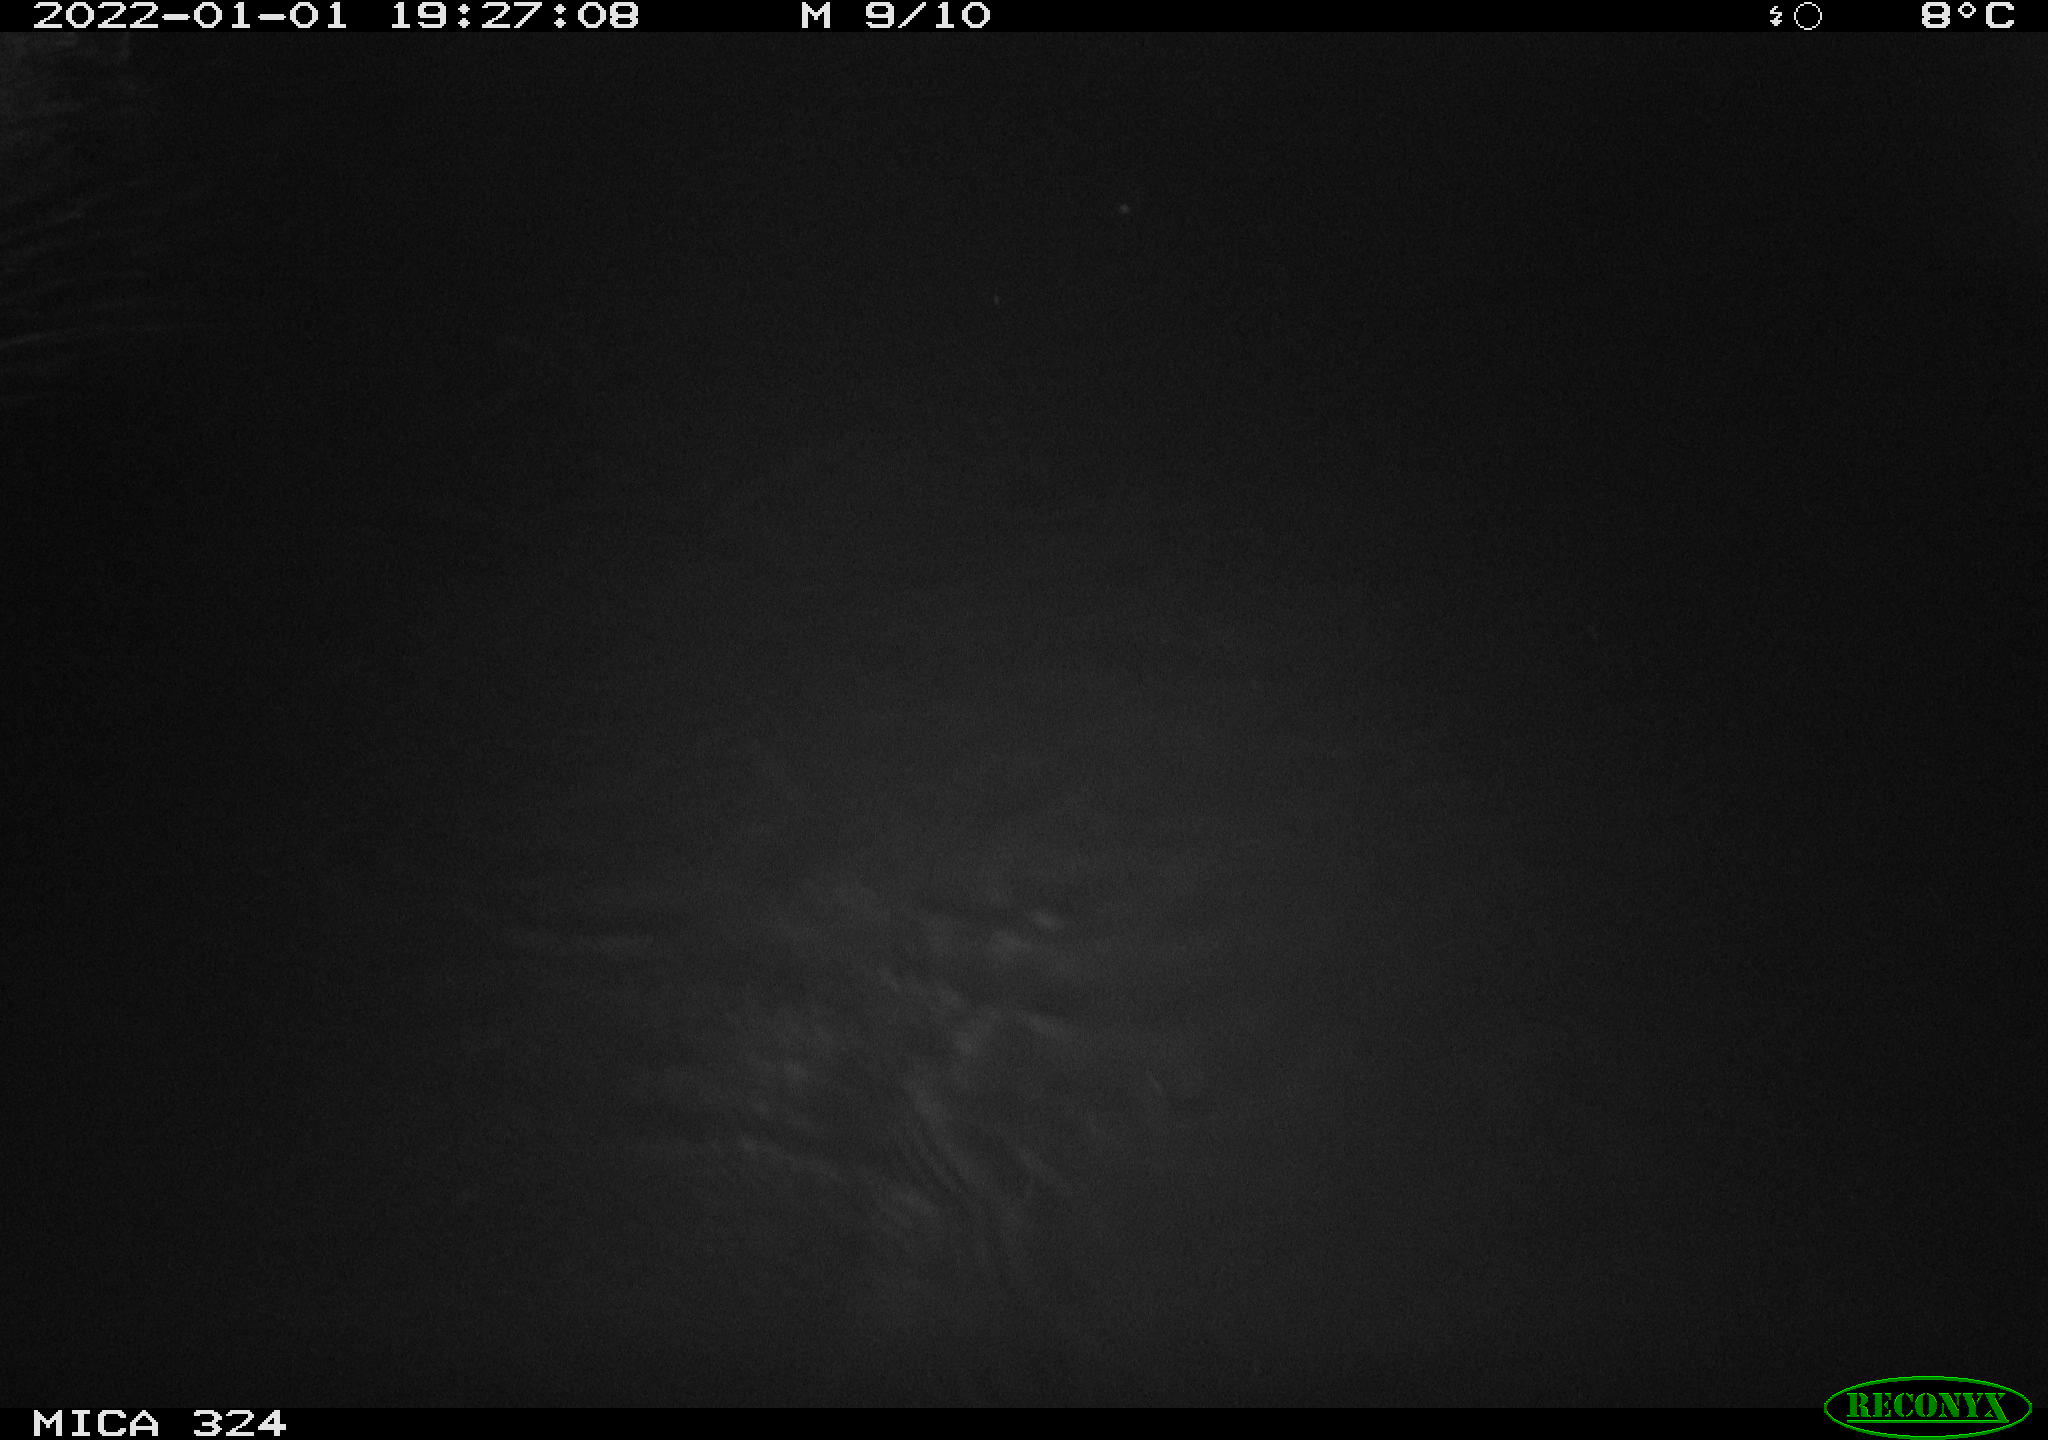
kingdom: Animalia
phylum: Chordata
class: Mammalia
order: Rodentia
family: Cricetidae
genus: Ondatra
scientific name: Ondatra zibethicus
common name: Muskrat
